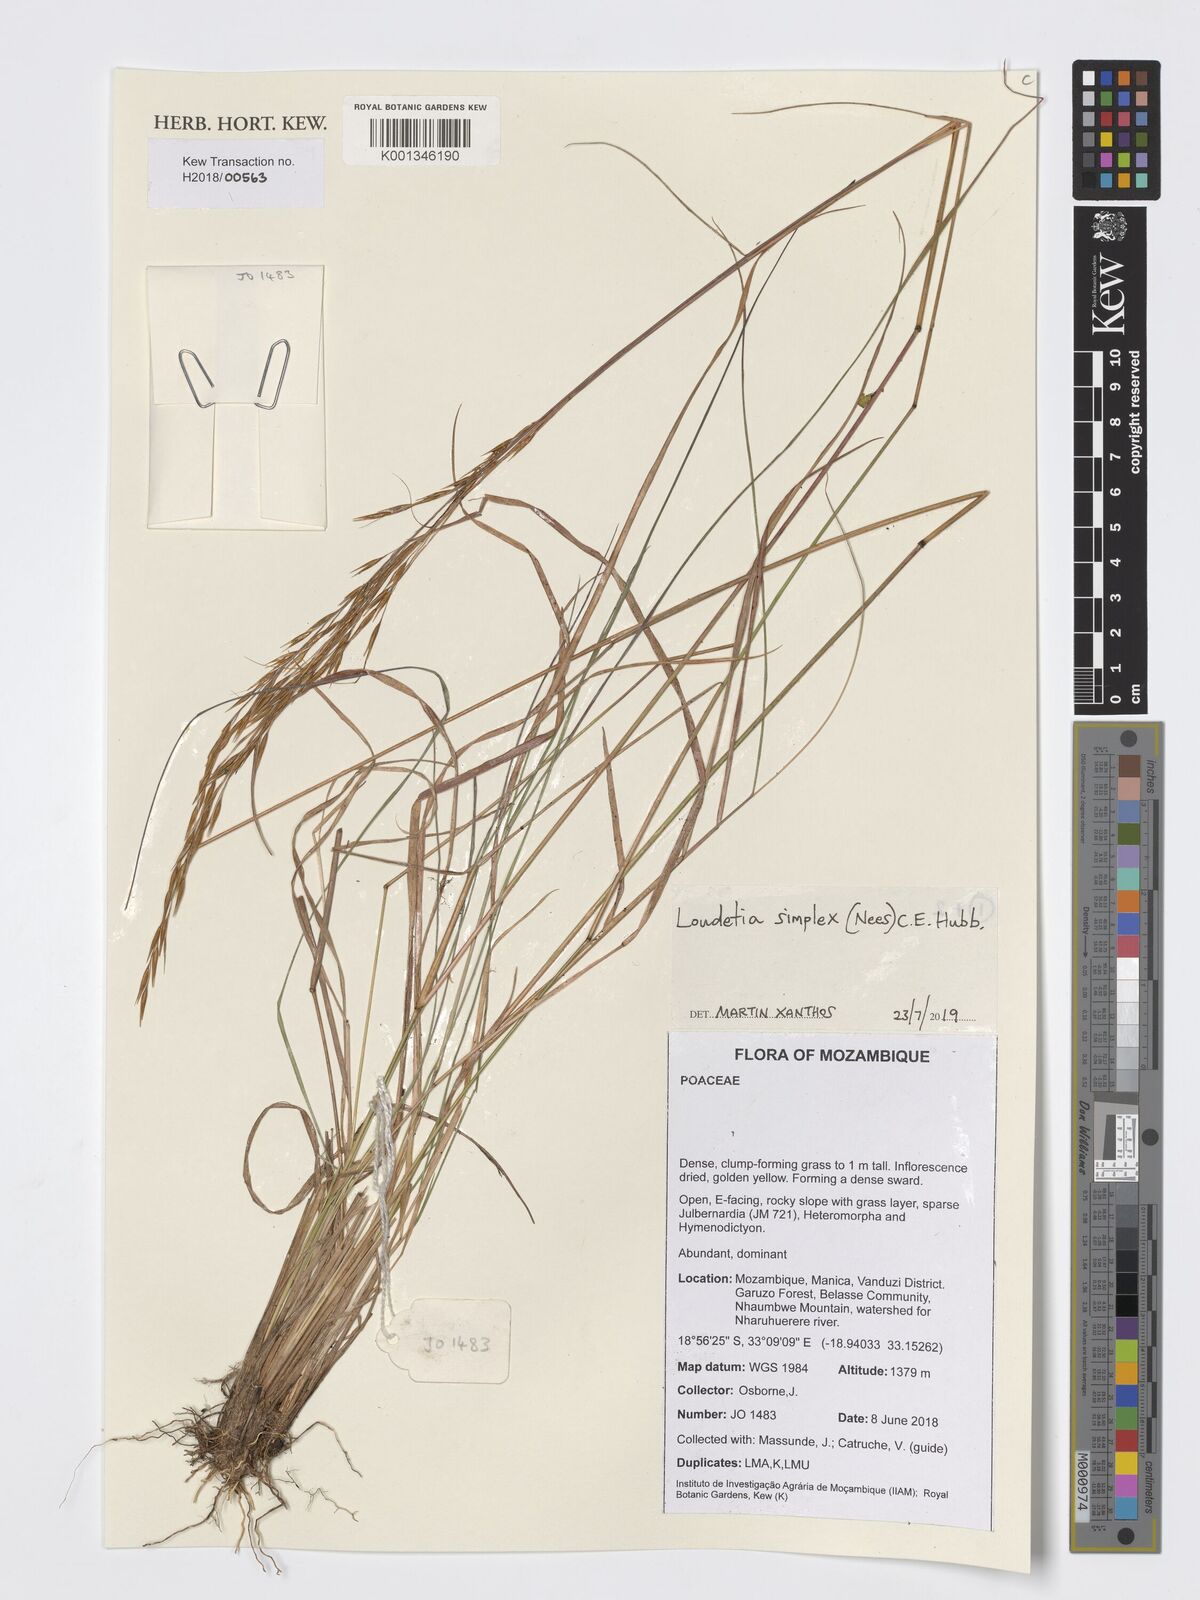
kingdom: Plantae
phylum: Tracheophyta
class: Liliopsida
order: Poales
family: Poaceae
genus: Loudetia
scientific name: Loudetia simplex
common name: Common russet grass
